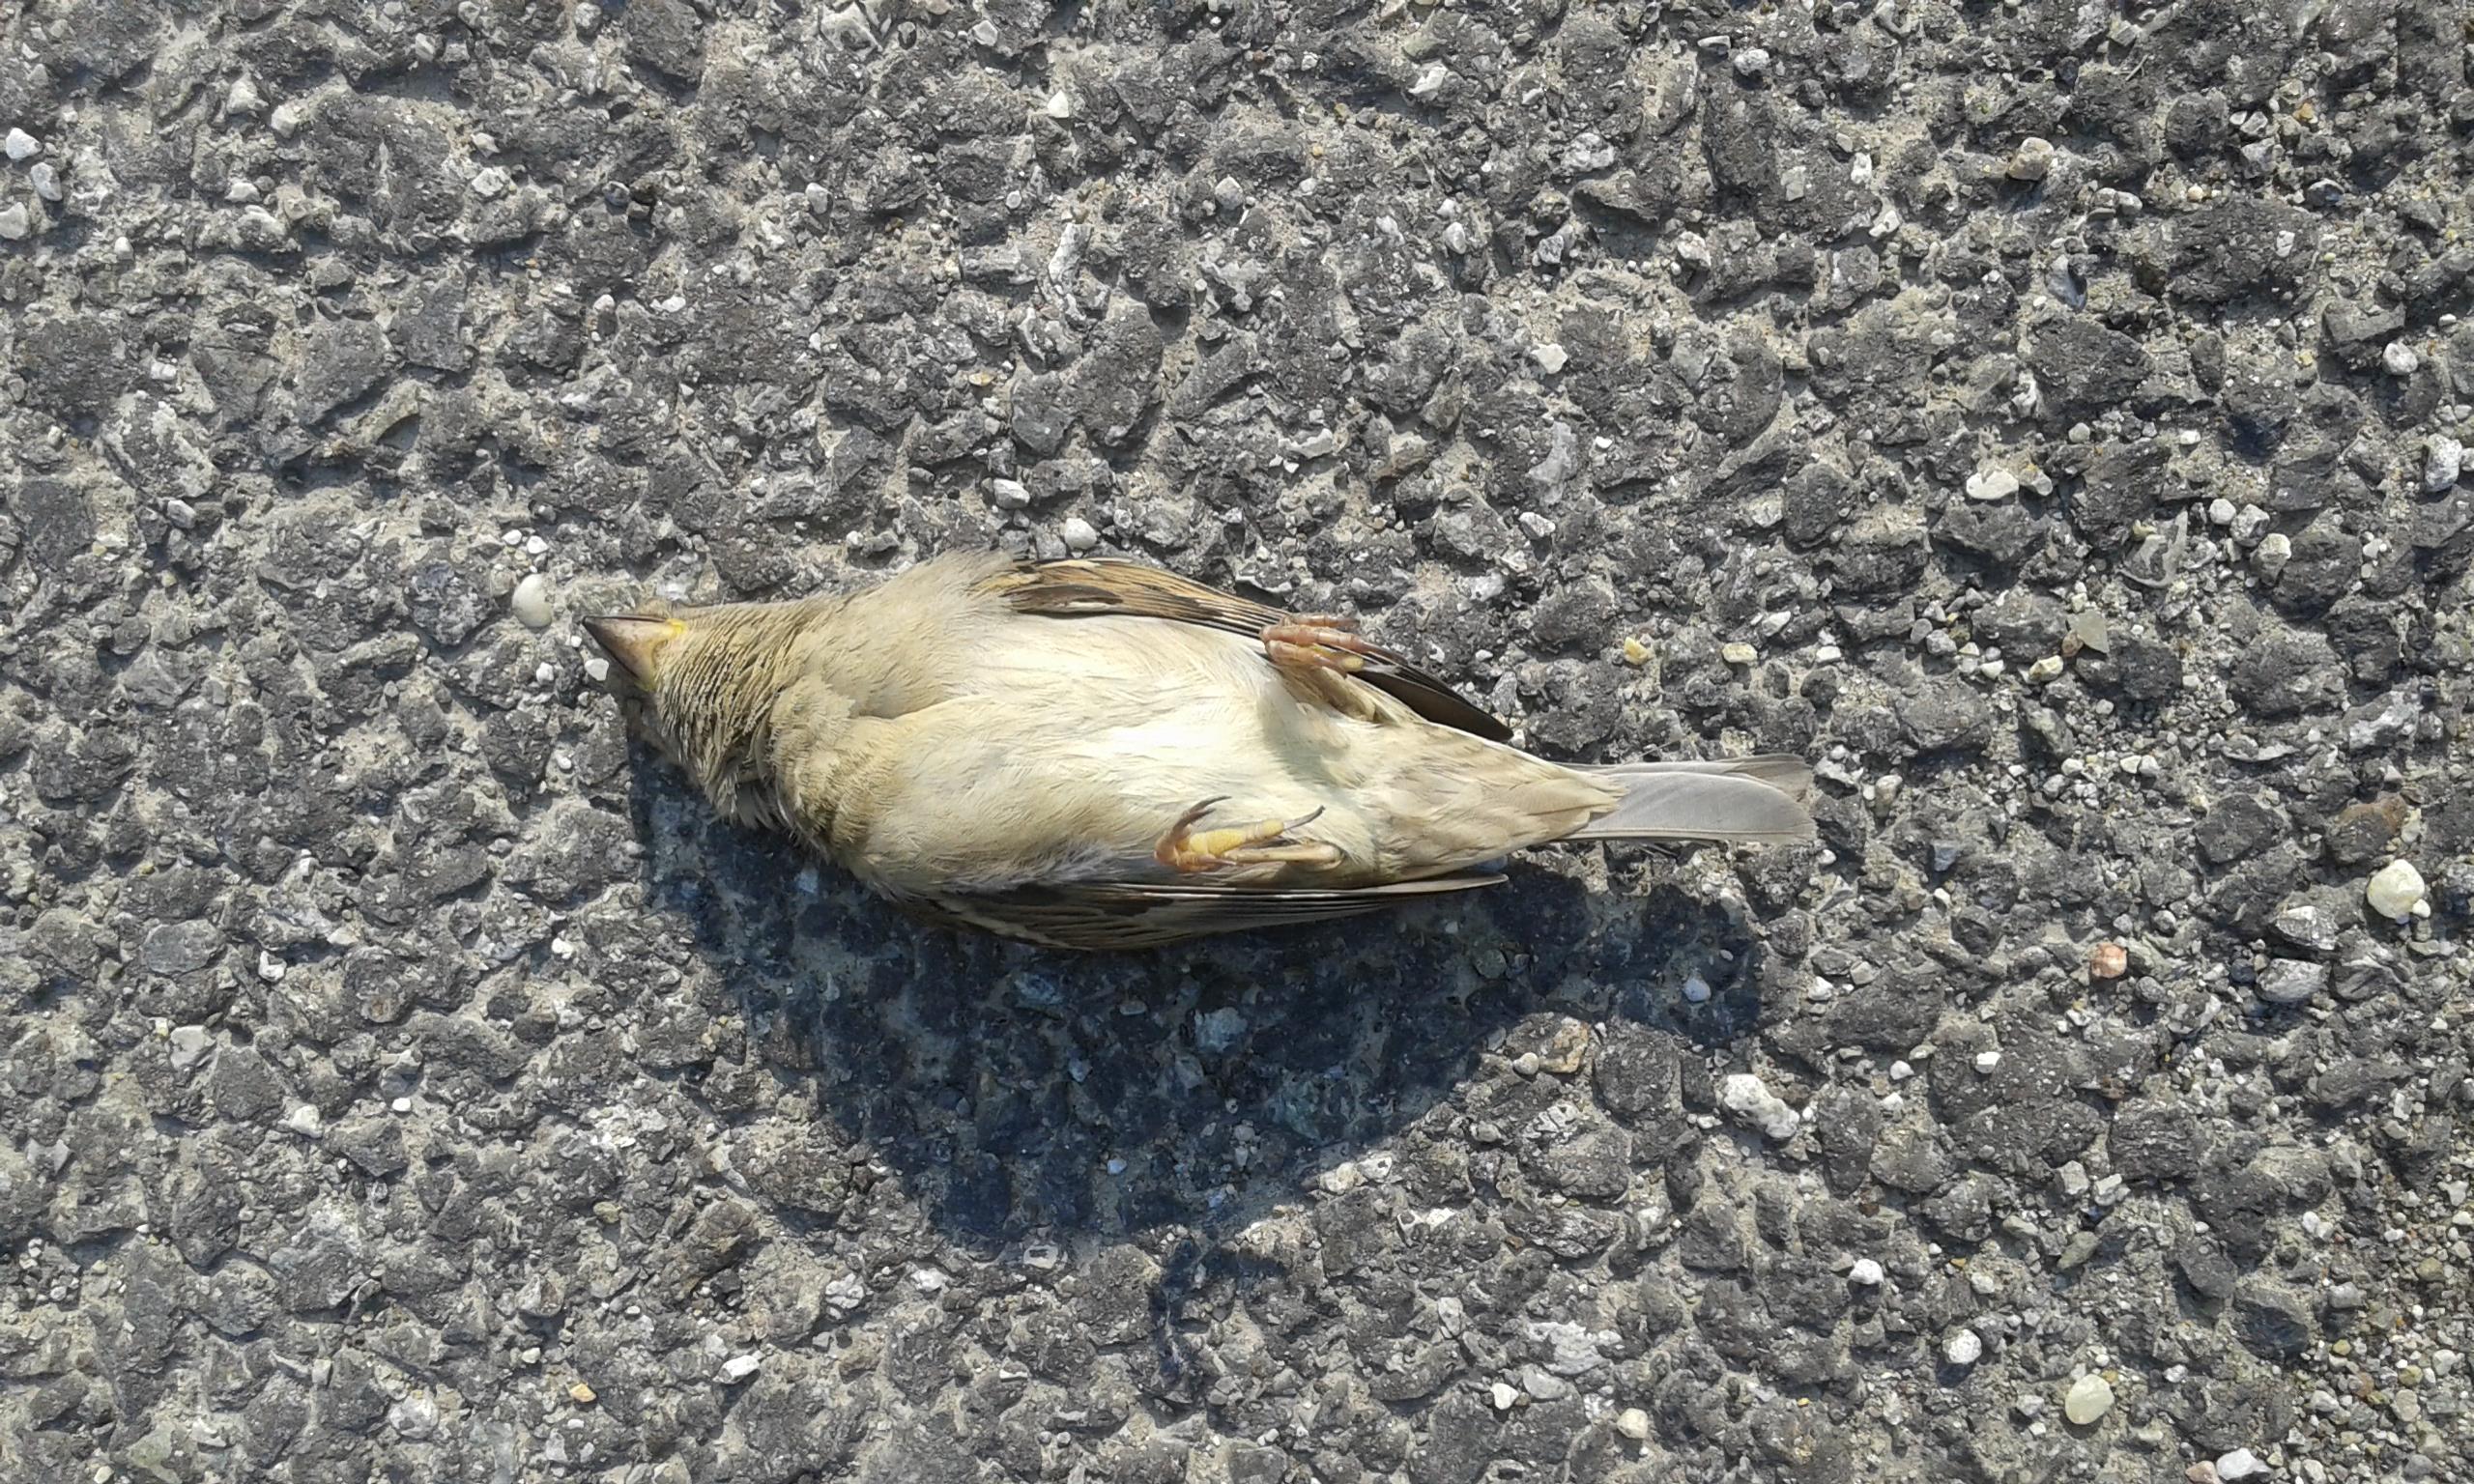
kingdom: Animalia
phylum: Chordata
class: Aves
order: Passeriformes
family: Passeridae
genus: Passer
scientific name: Passer domesticus
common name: House sparrow
